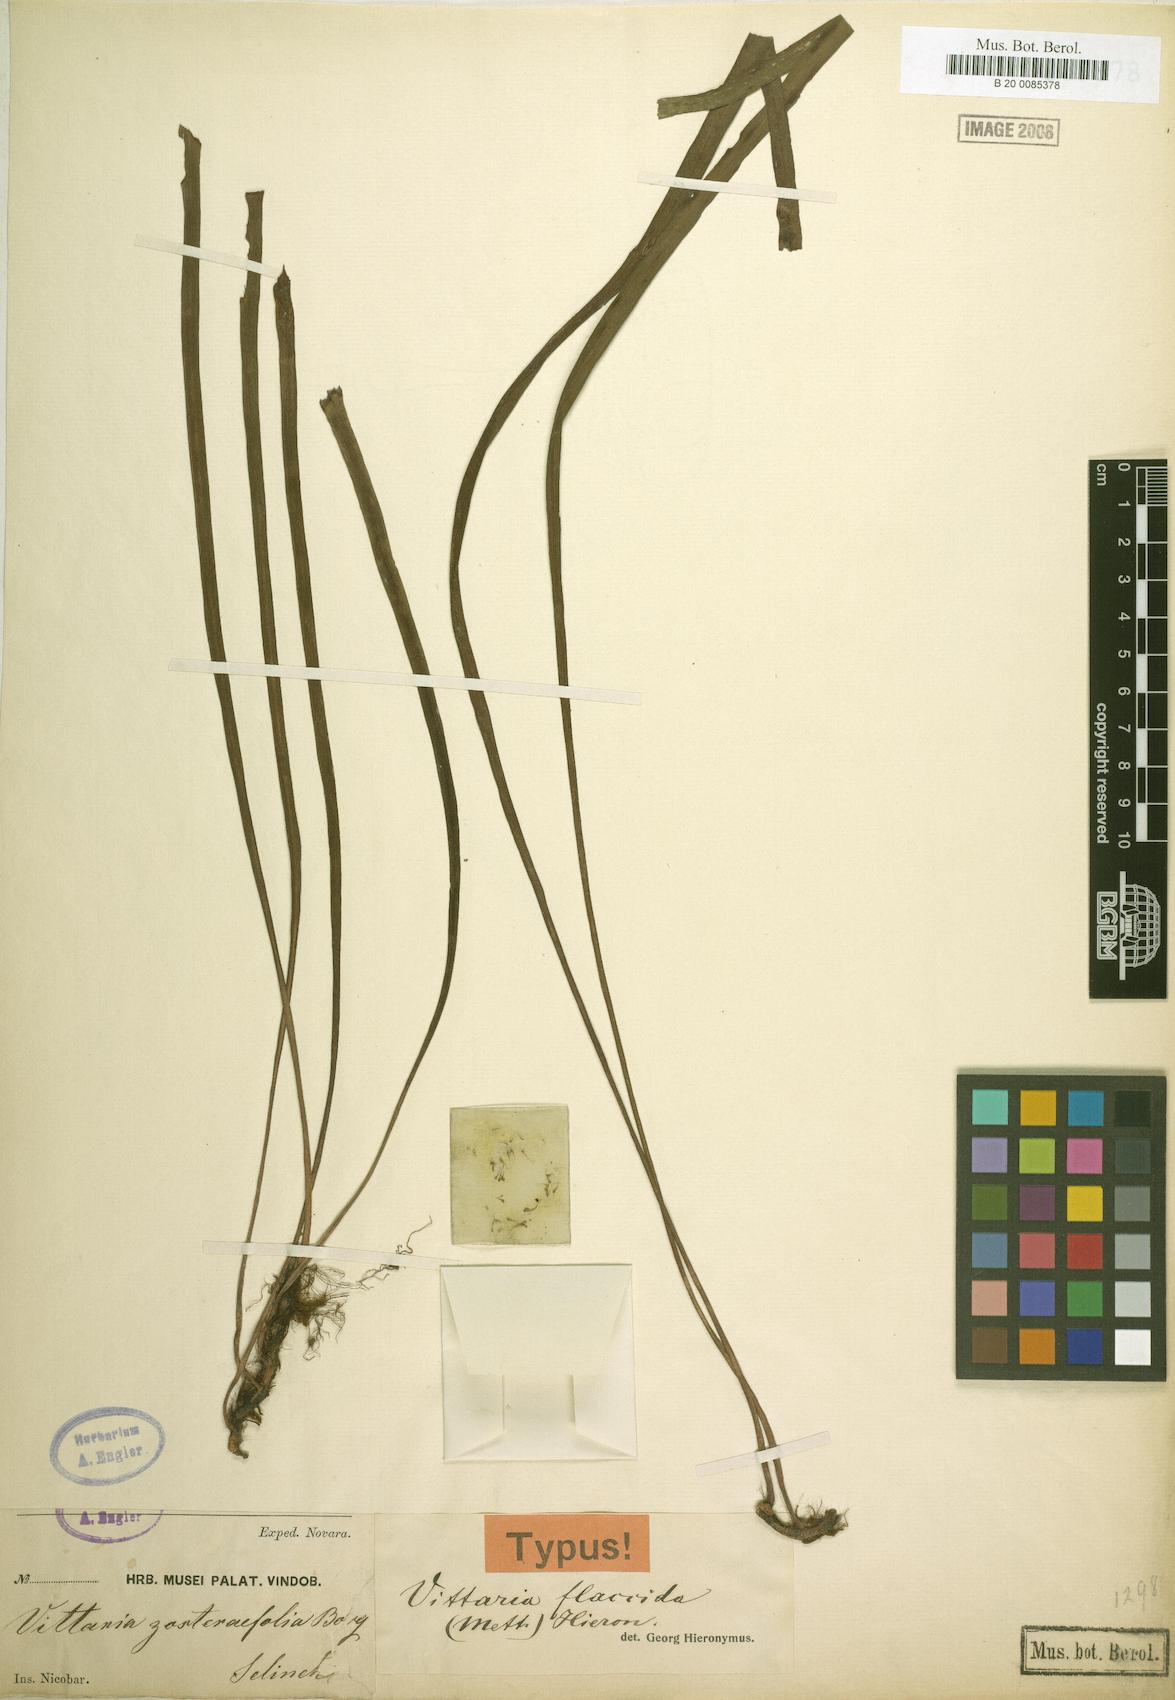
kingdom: Plantae
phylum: Tracheophyta
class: Polypodiopsida
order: Polypodiales
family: Pteridaceae
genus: Haplopteris
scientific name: Haplopteris elongata
